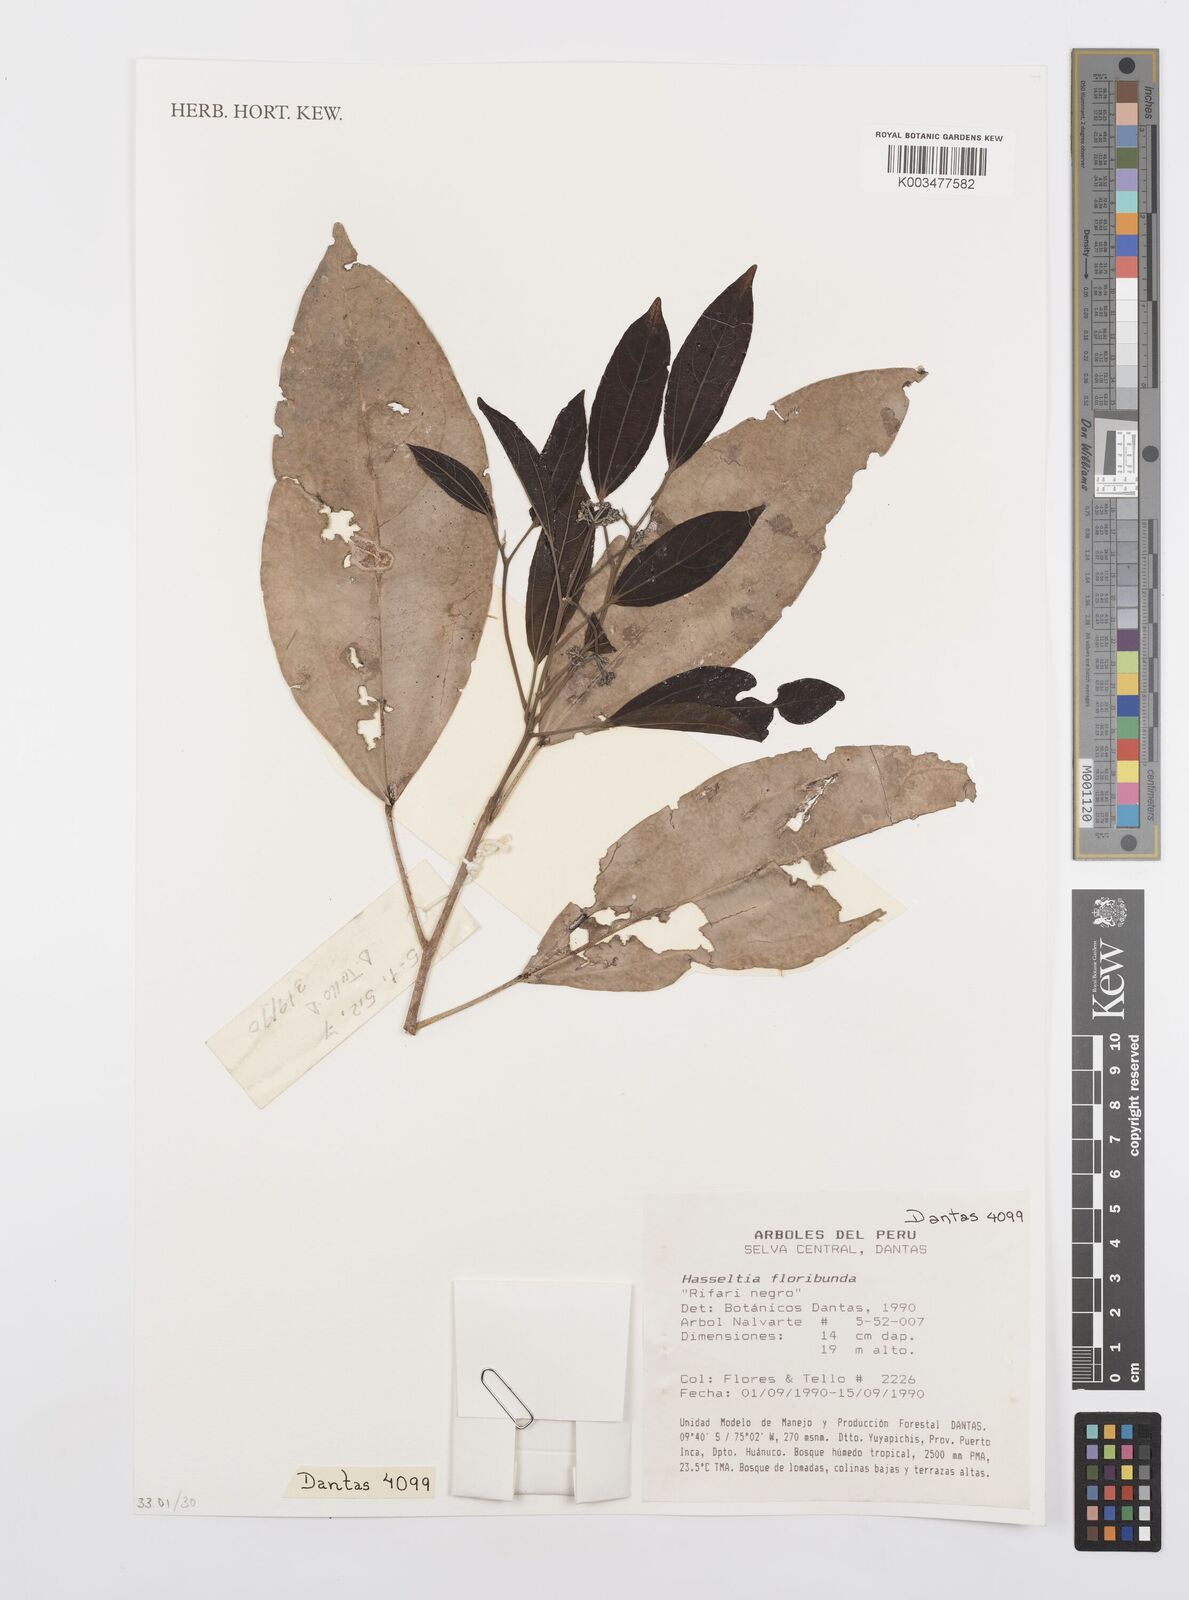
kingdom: Plantae
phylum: Tracheophyta
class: Magnoliopsida
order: Malpighiales
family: Salicaceae
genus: Hasseltia
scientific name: Hasseltia floribunda
